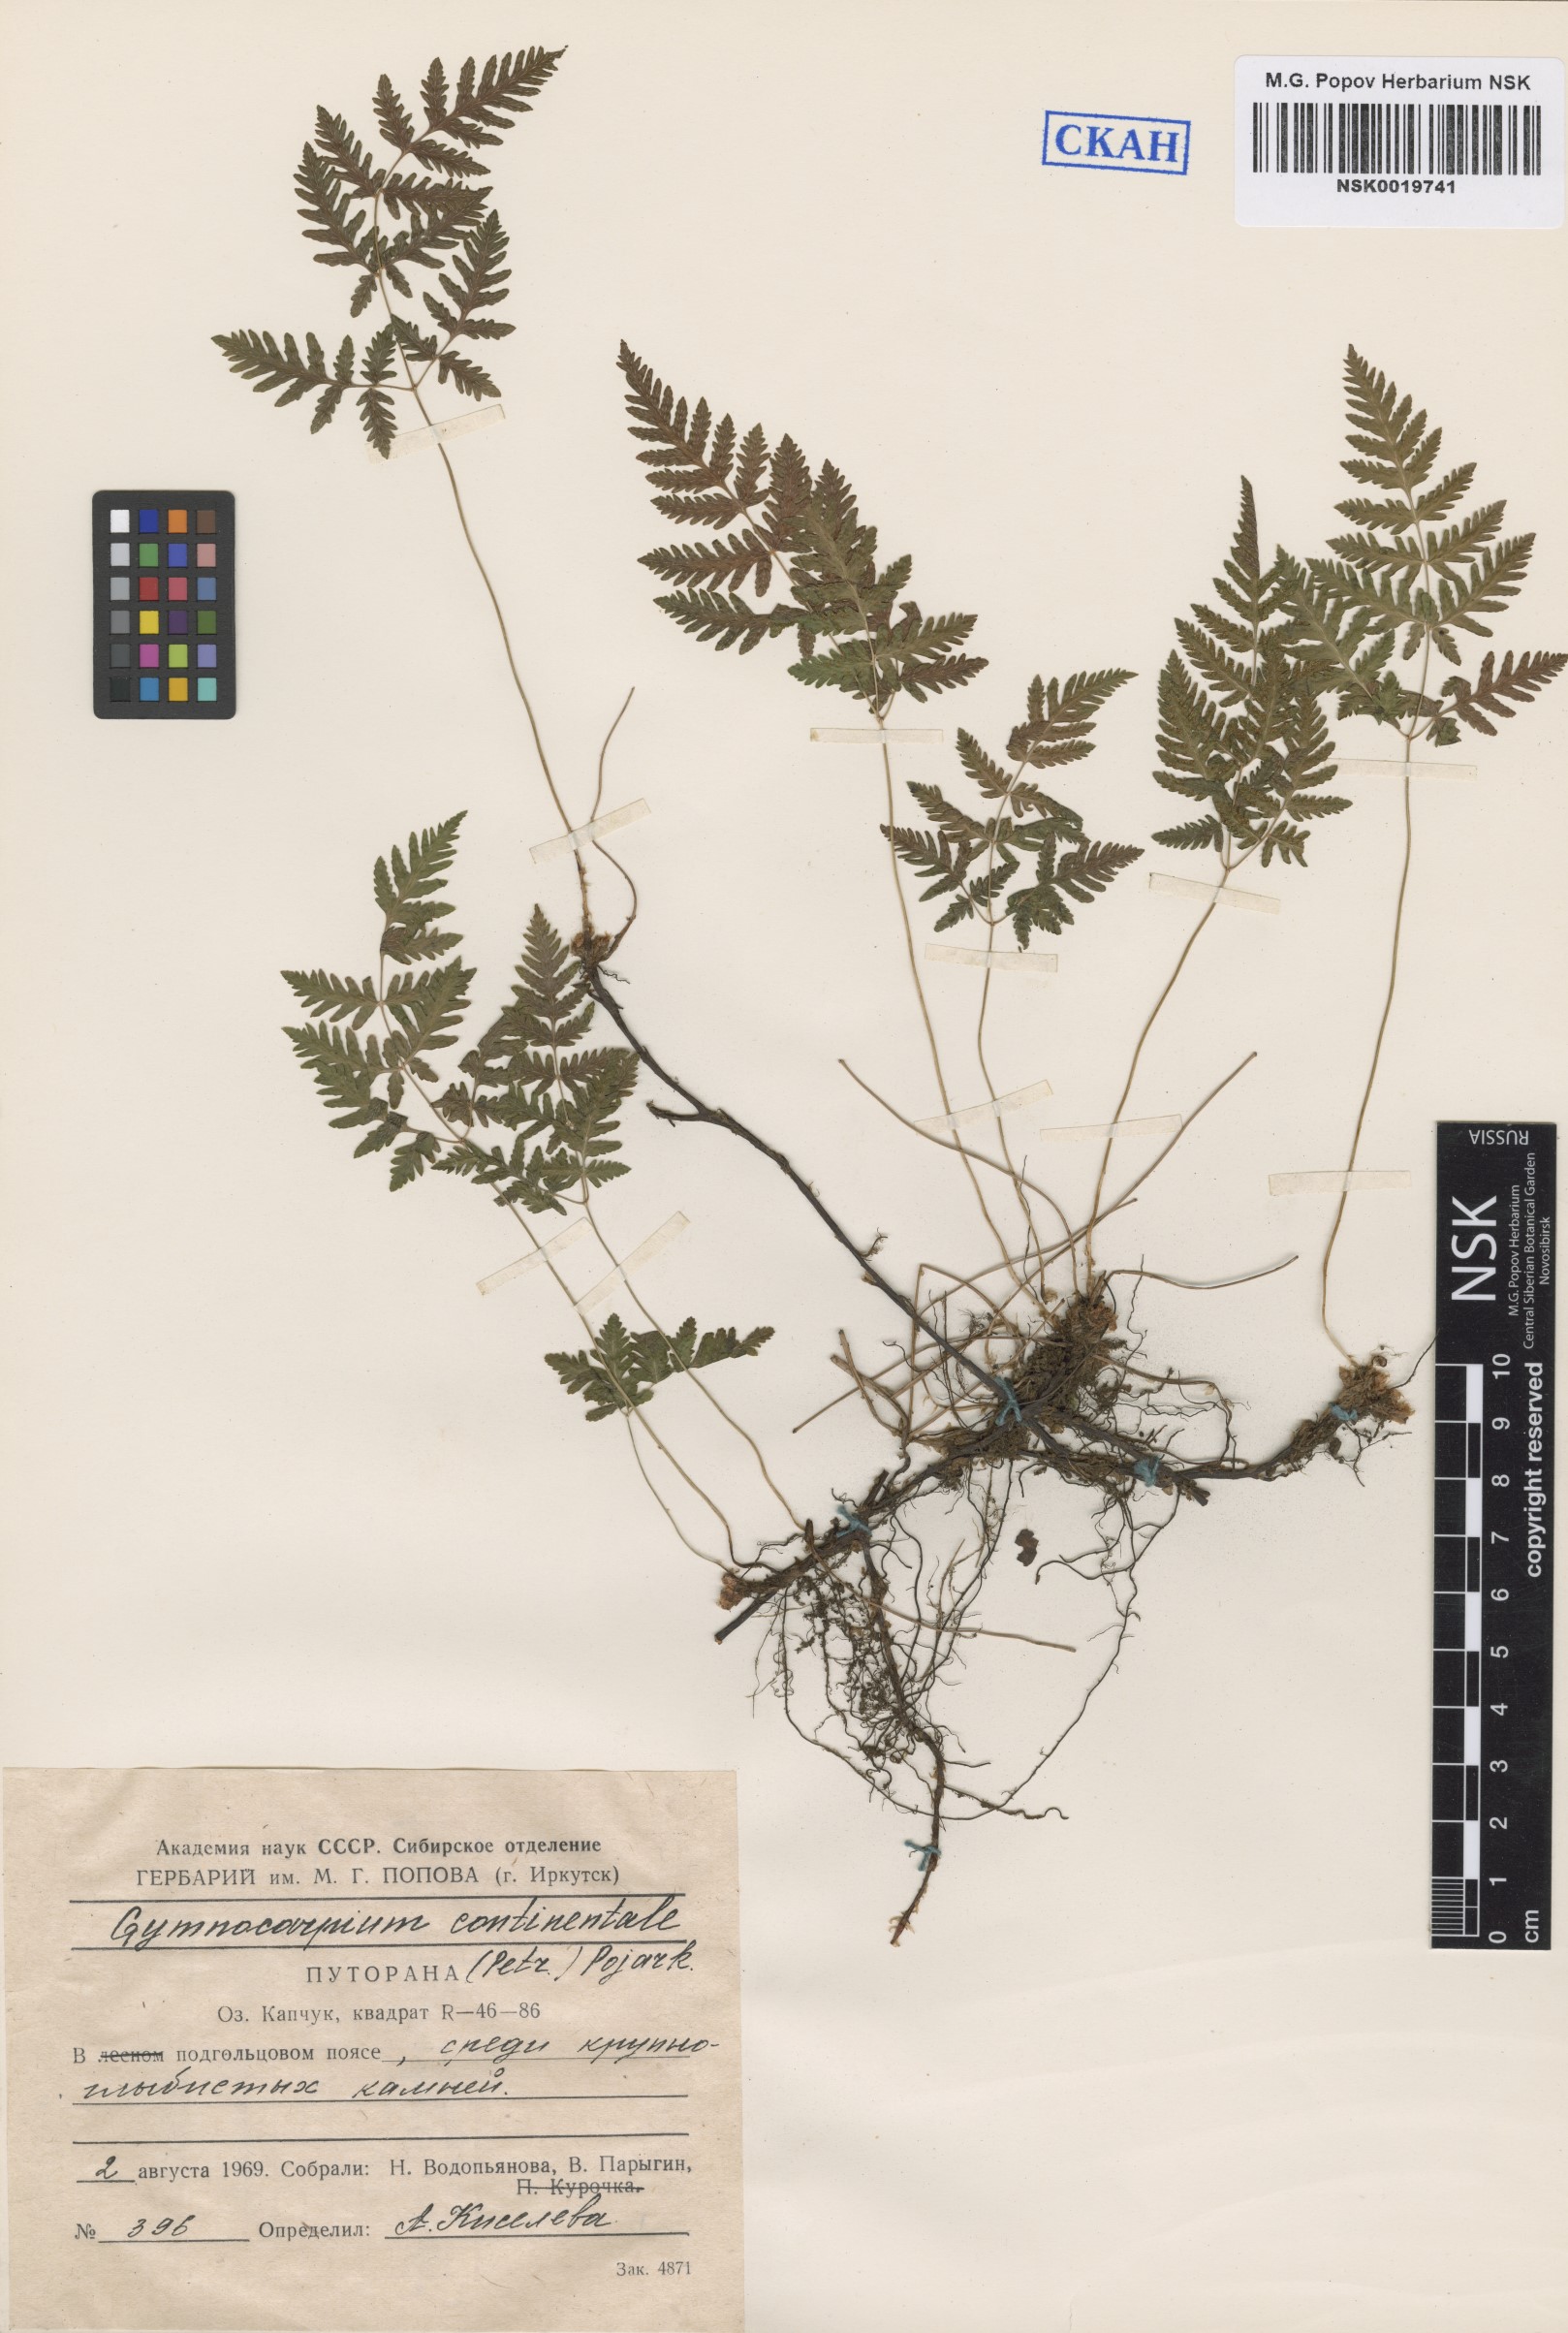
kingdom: Plantae
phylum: Tracheophyta
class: Polypodiopsida
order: Polypodiales
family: Cystopteridaceae
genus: Gymnocarpium
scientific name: Gymnocarpium continentale
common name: Asian oak fern
